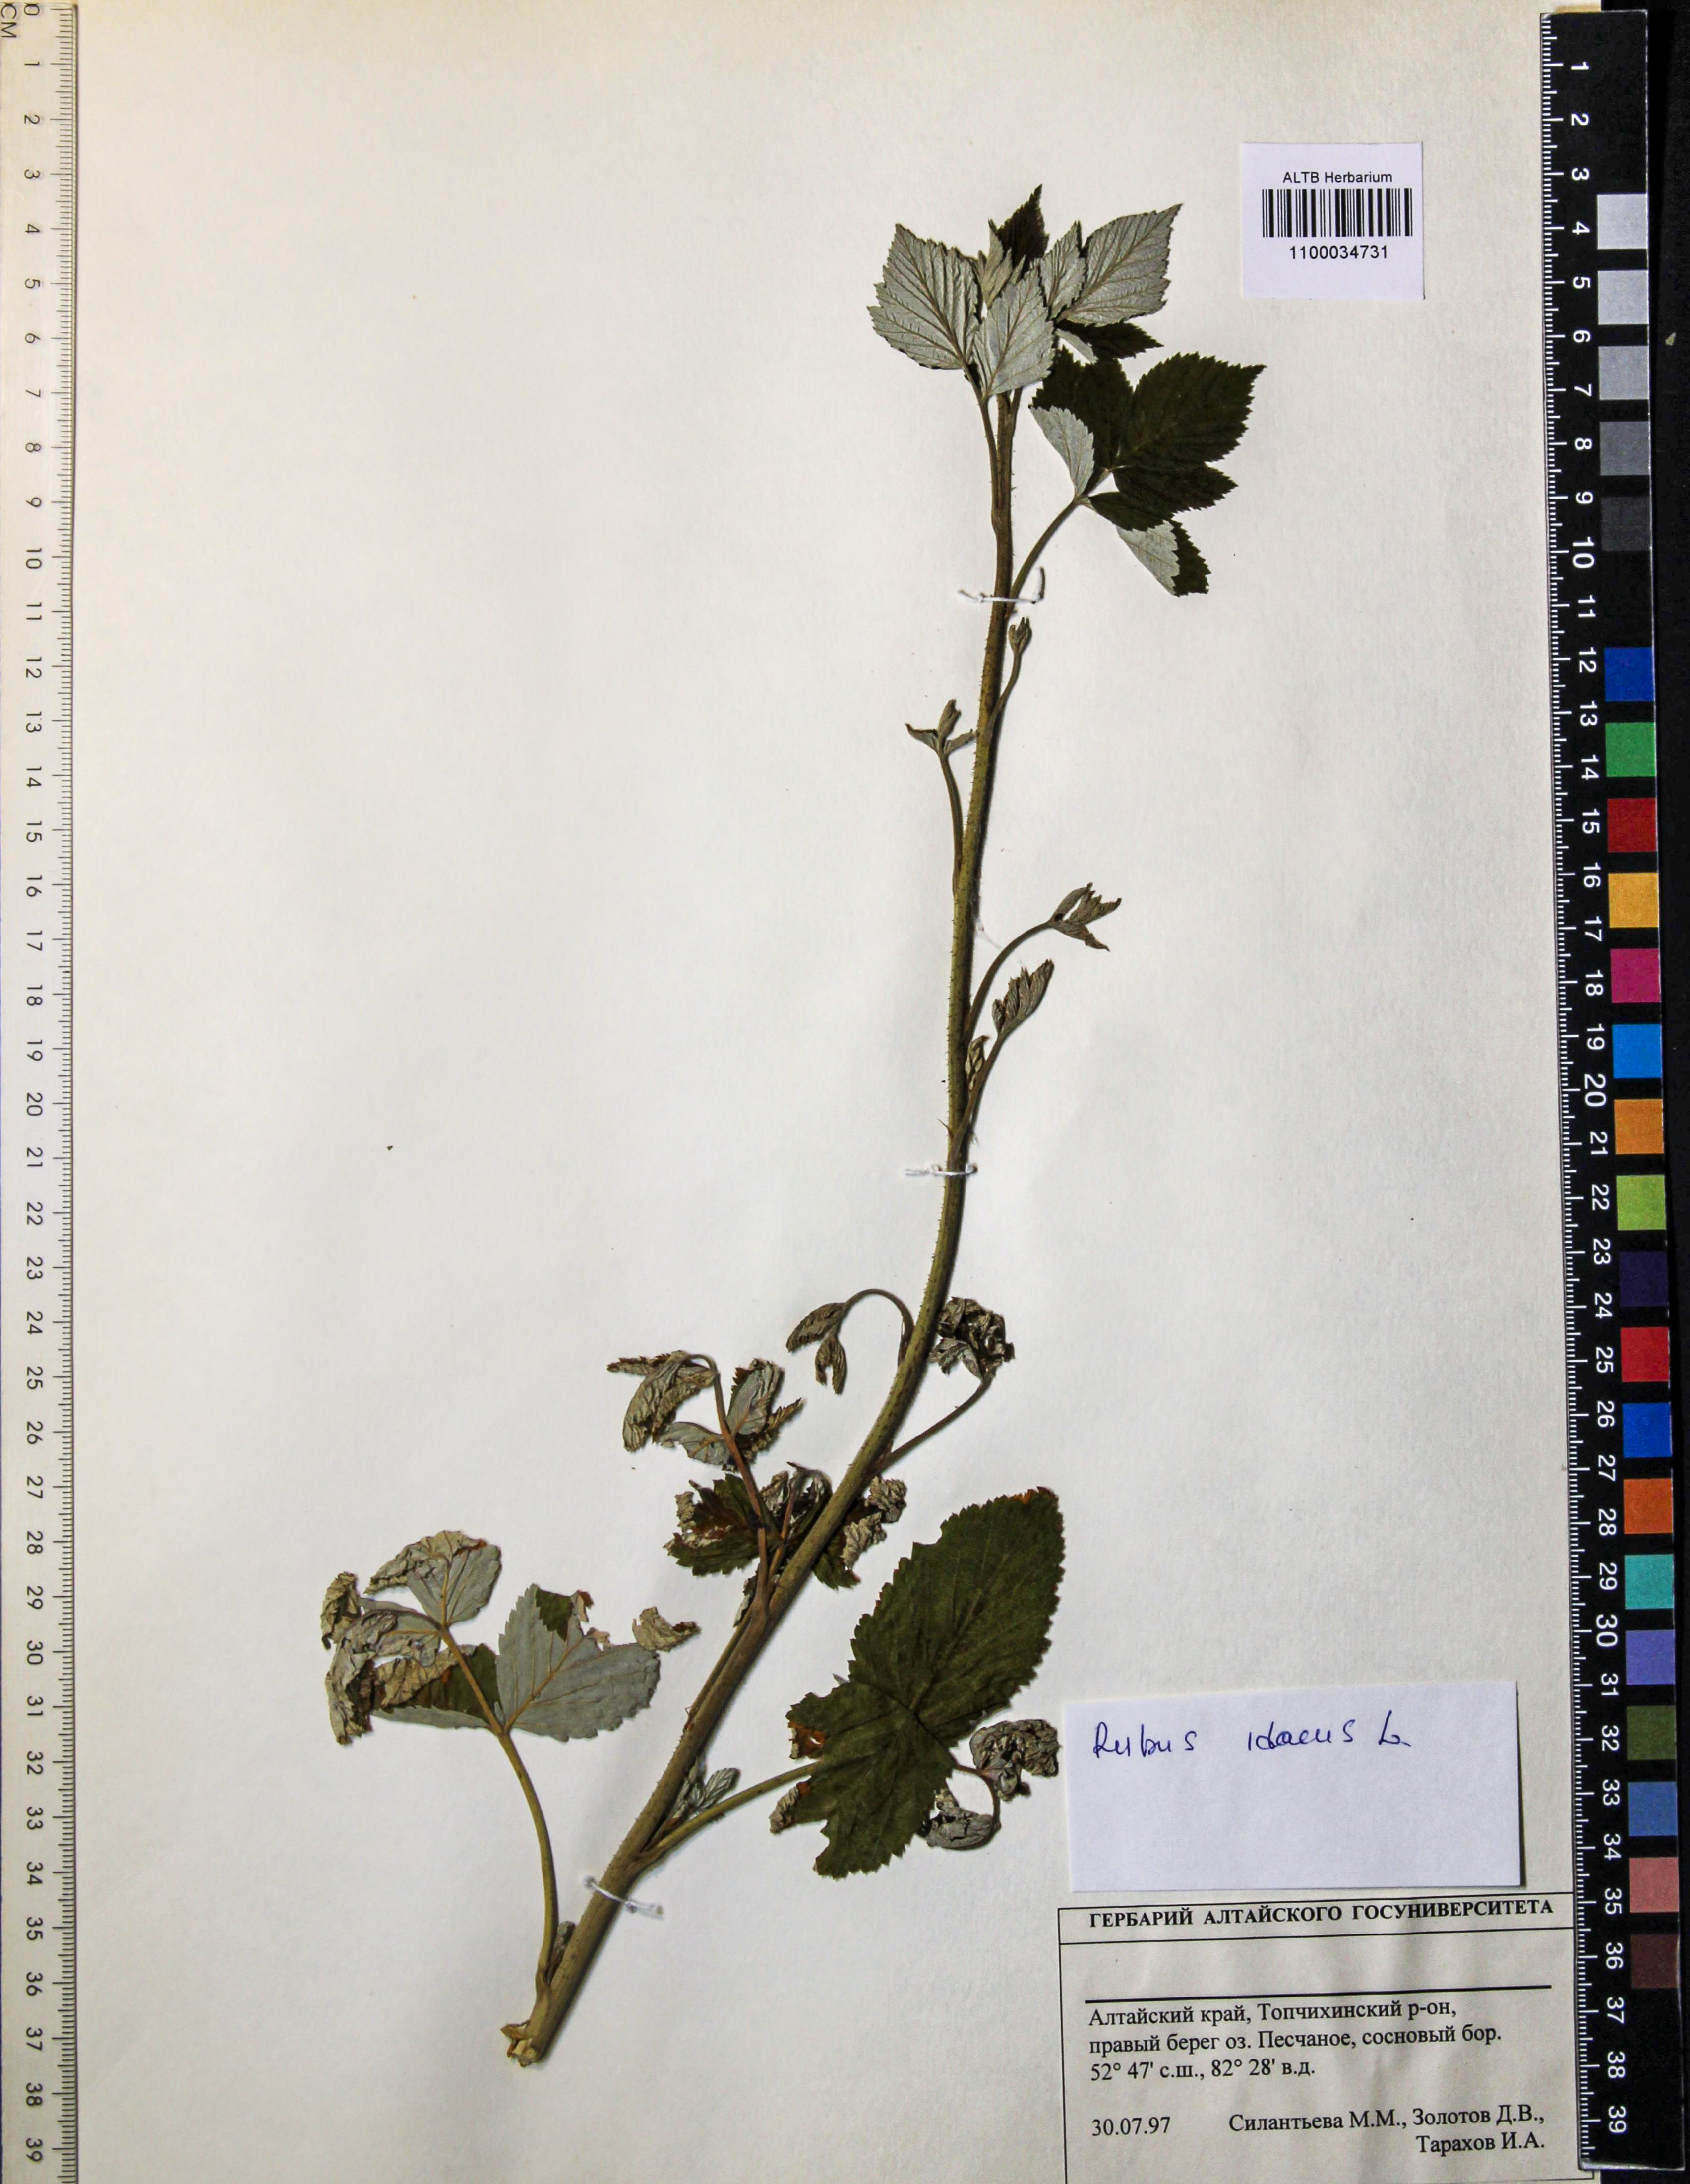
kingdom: Plantae
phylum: Tracheophyta
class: Magnoliopsida
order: Rosales
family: Rosaceae
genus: Rubus
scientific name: Rubus idaeus
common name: Raspberry
